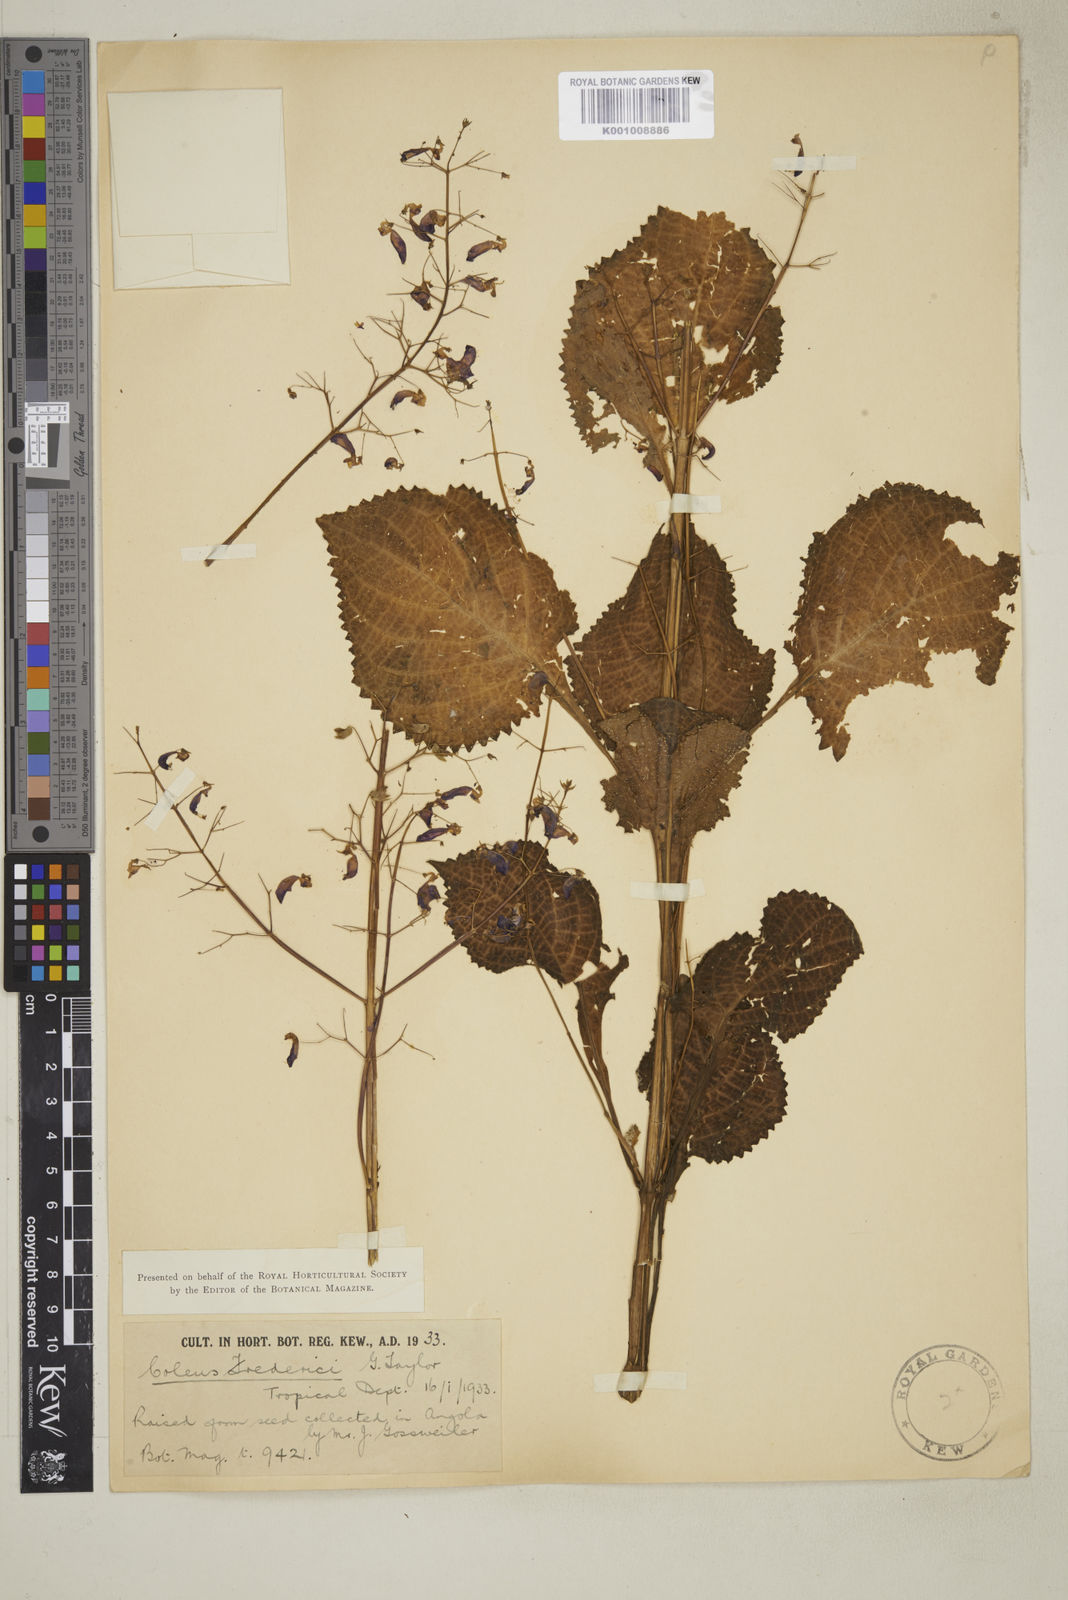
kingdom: Plantae
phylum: Tracheophyta
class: Magnoliopsida
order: Lamiales
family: Lamiaceae
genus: Plectranthus
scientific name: Plectranthus
